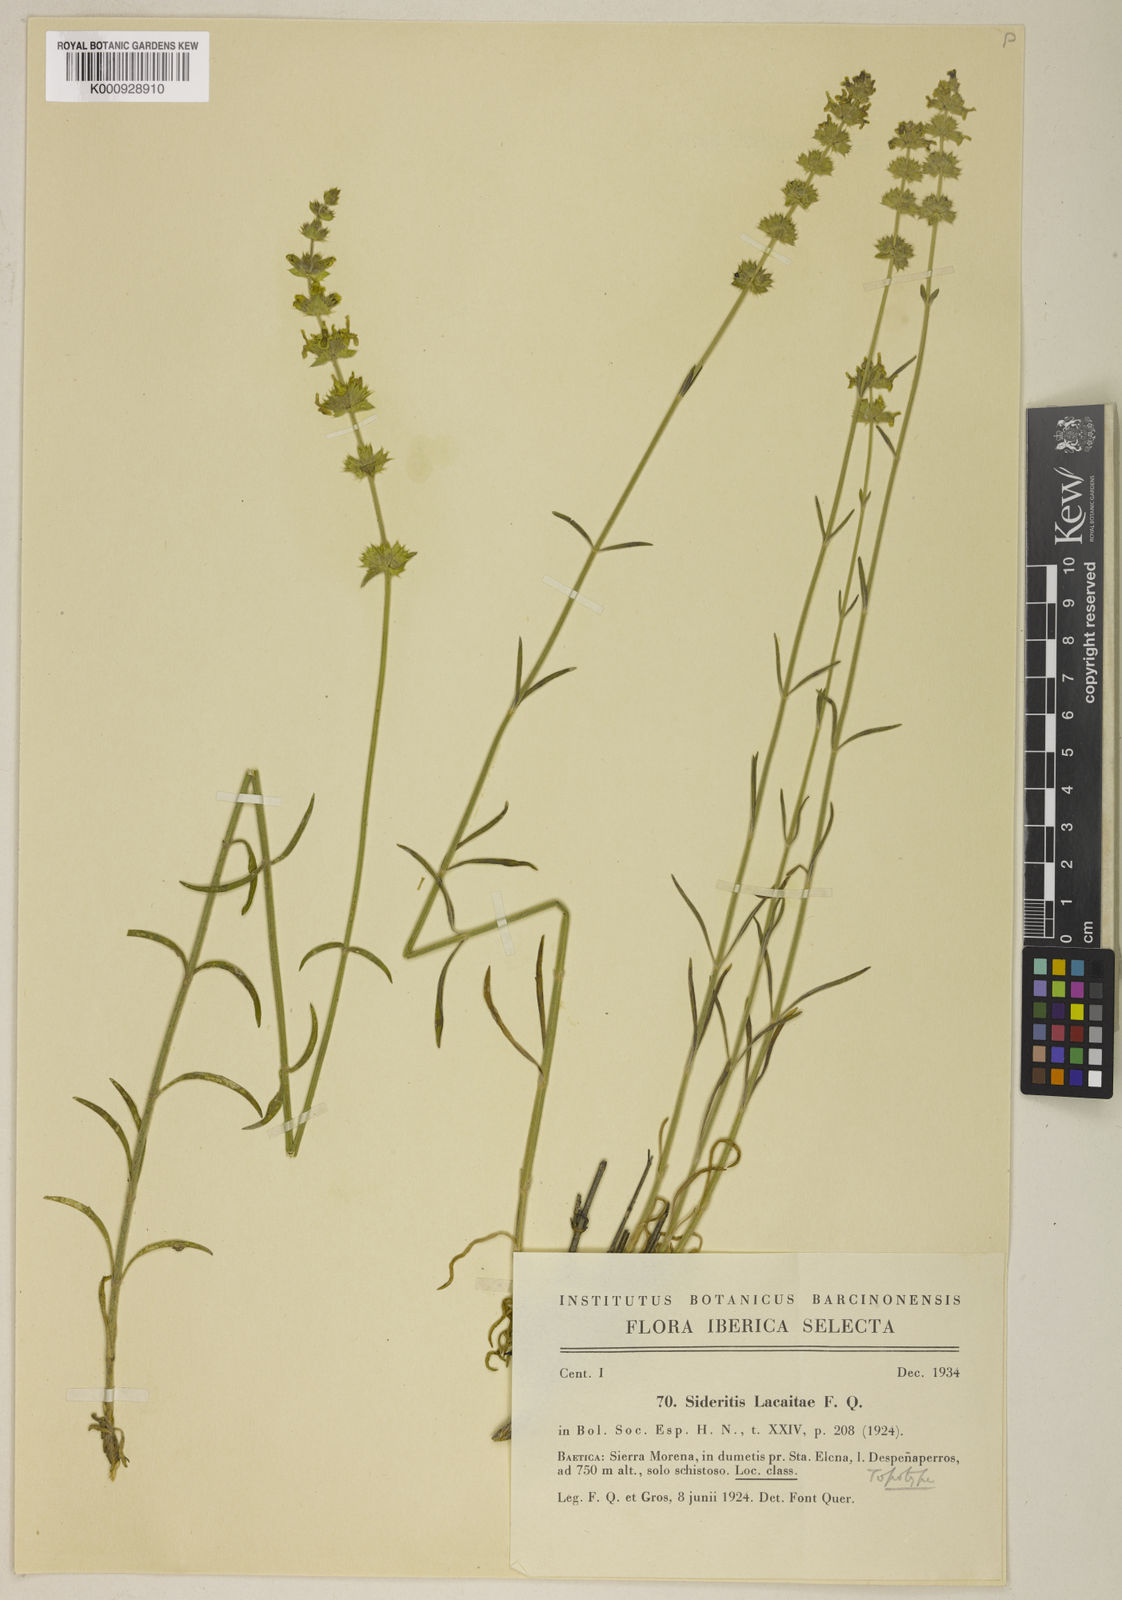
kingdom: Plantae
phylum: Tracheophyta
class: Magnoliopsida
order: Lamiales
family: Lamiaceae
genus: Sideritis
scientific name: Sideritis lacaitae
